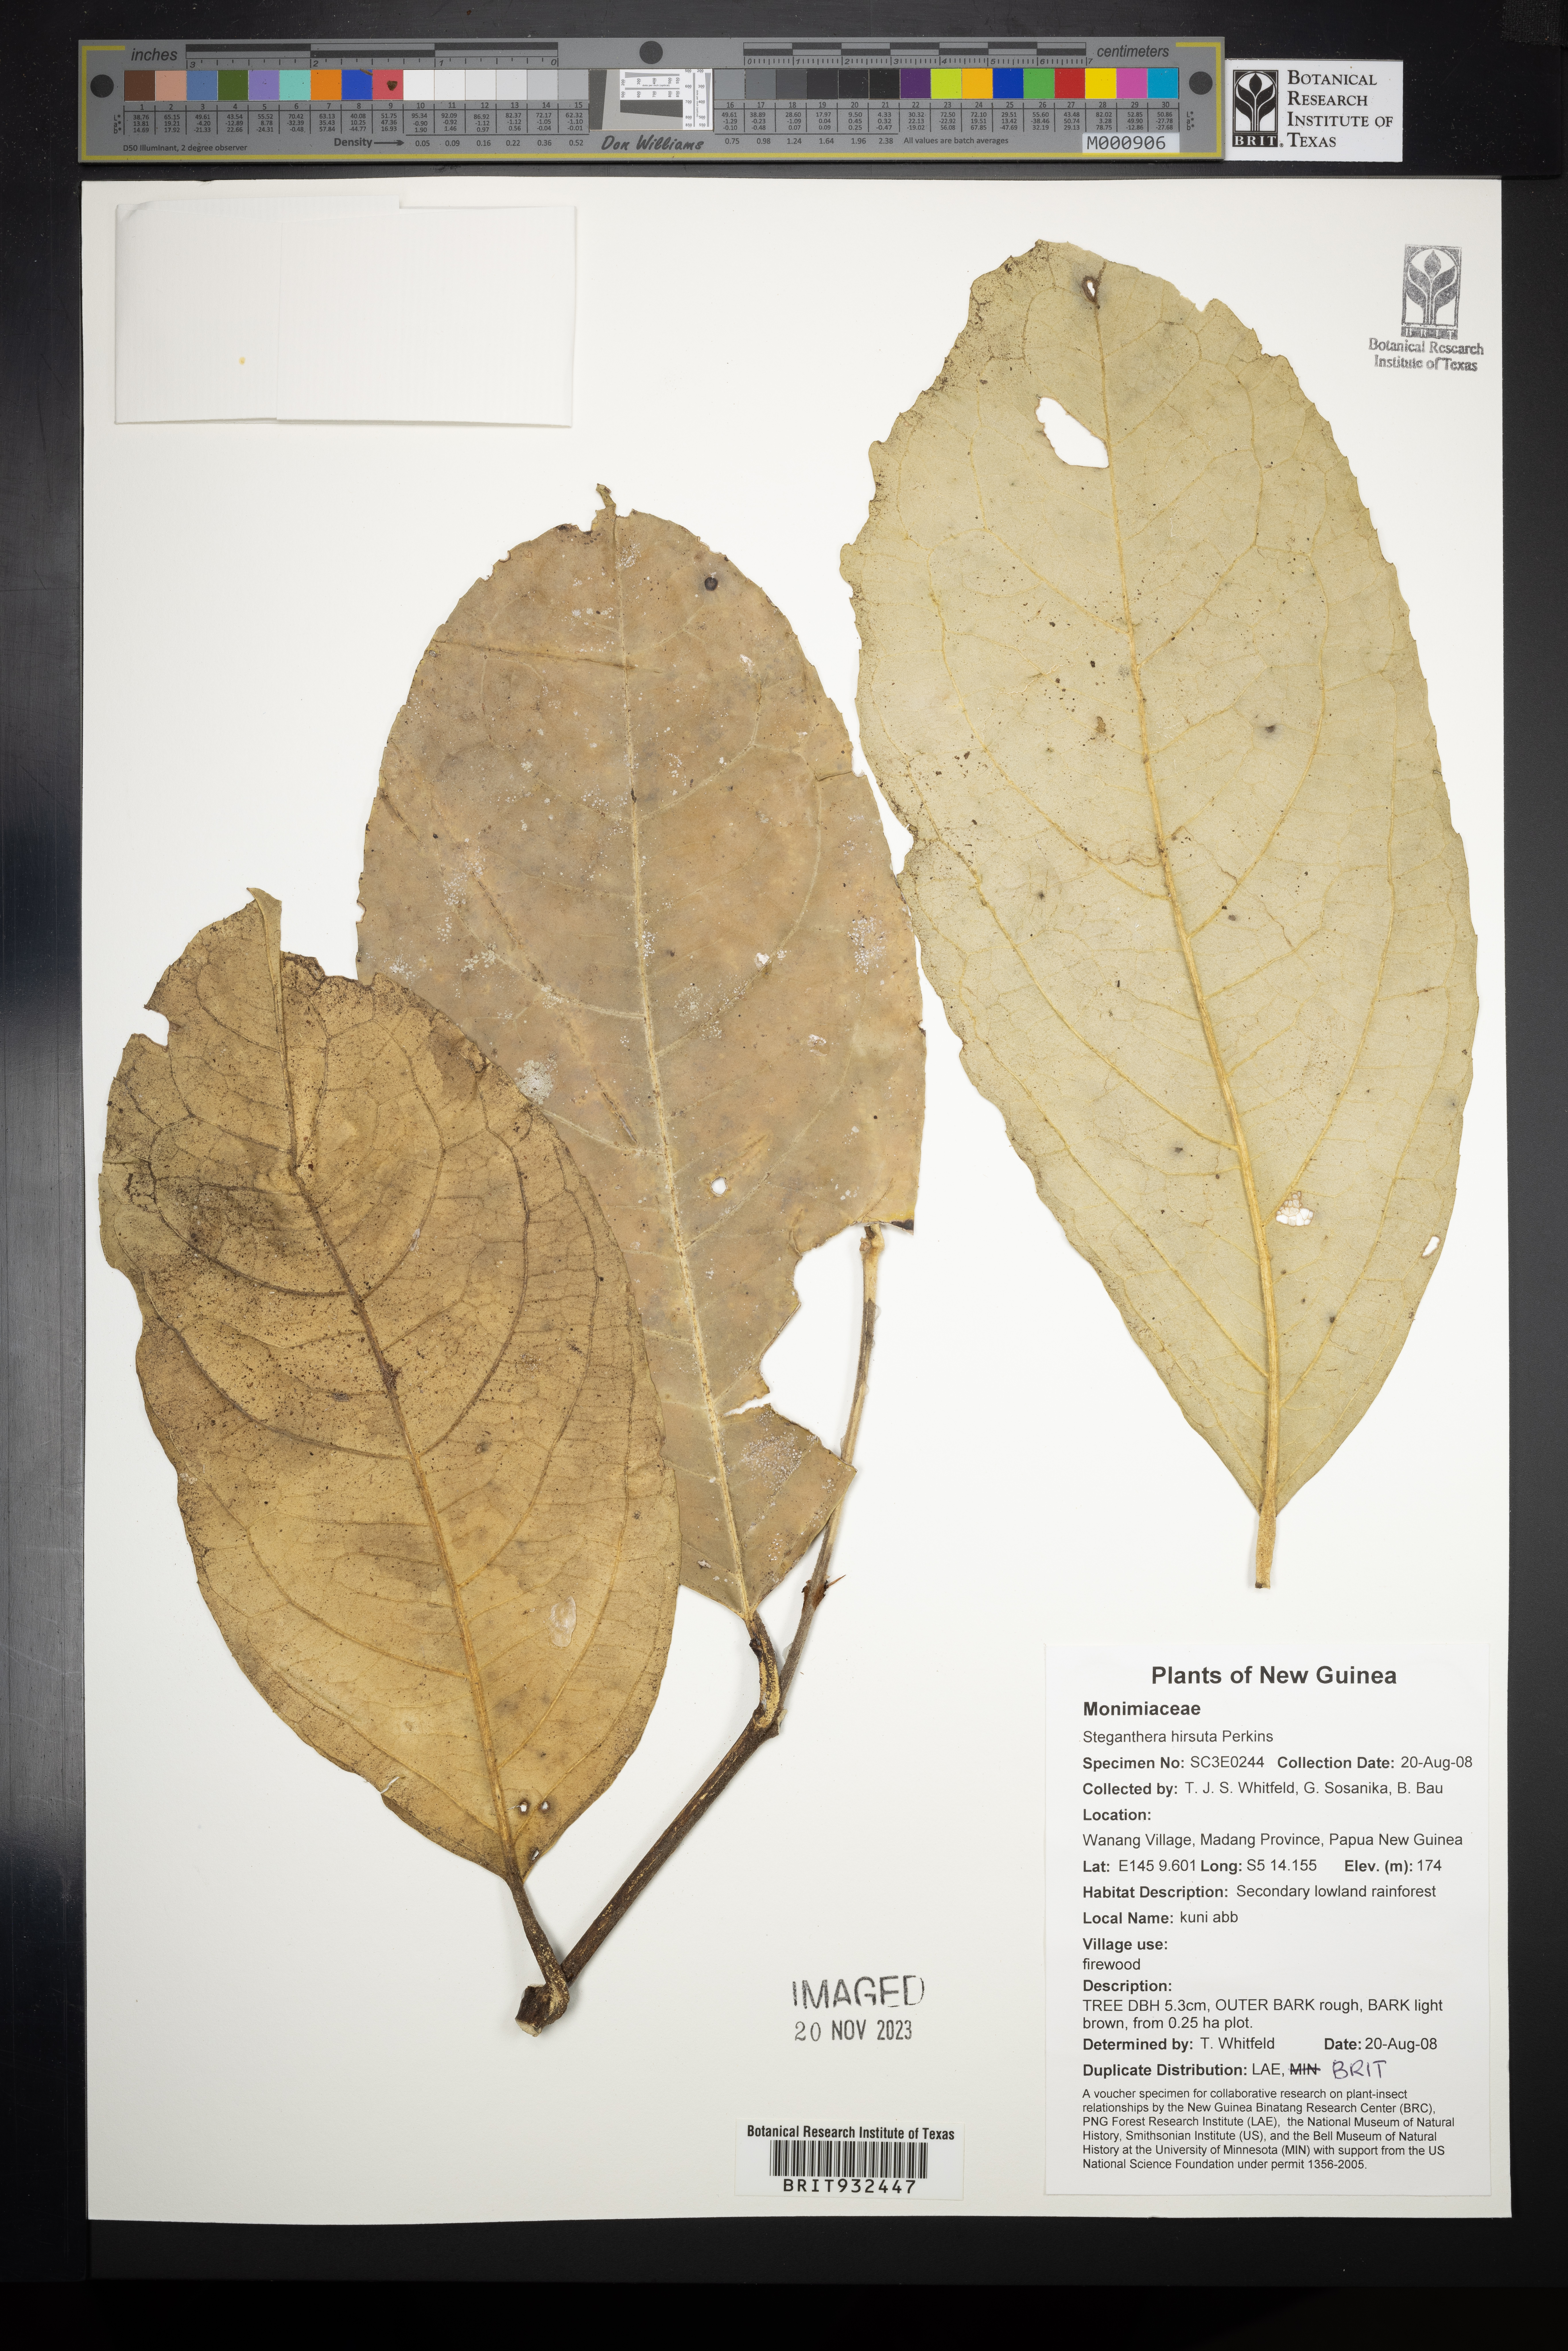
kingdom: Plantae
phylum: Tracheophyta
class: Magnoliopsida
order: Laurales
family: Monimiaceae
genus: Steganthera
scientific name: Steganthera
